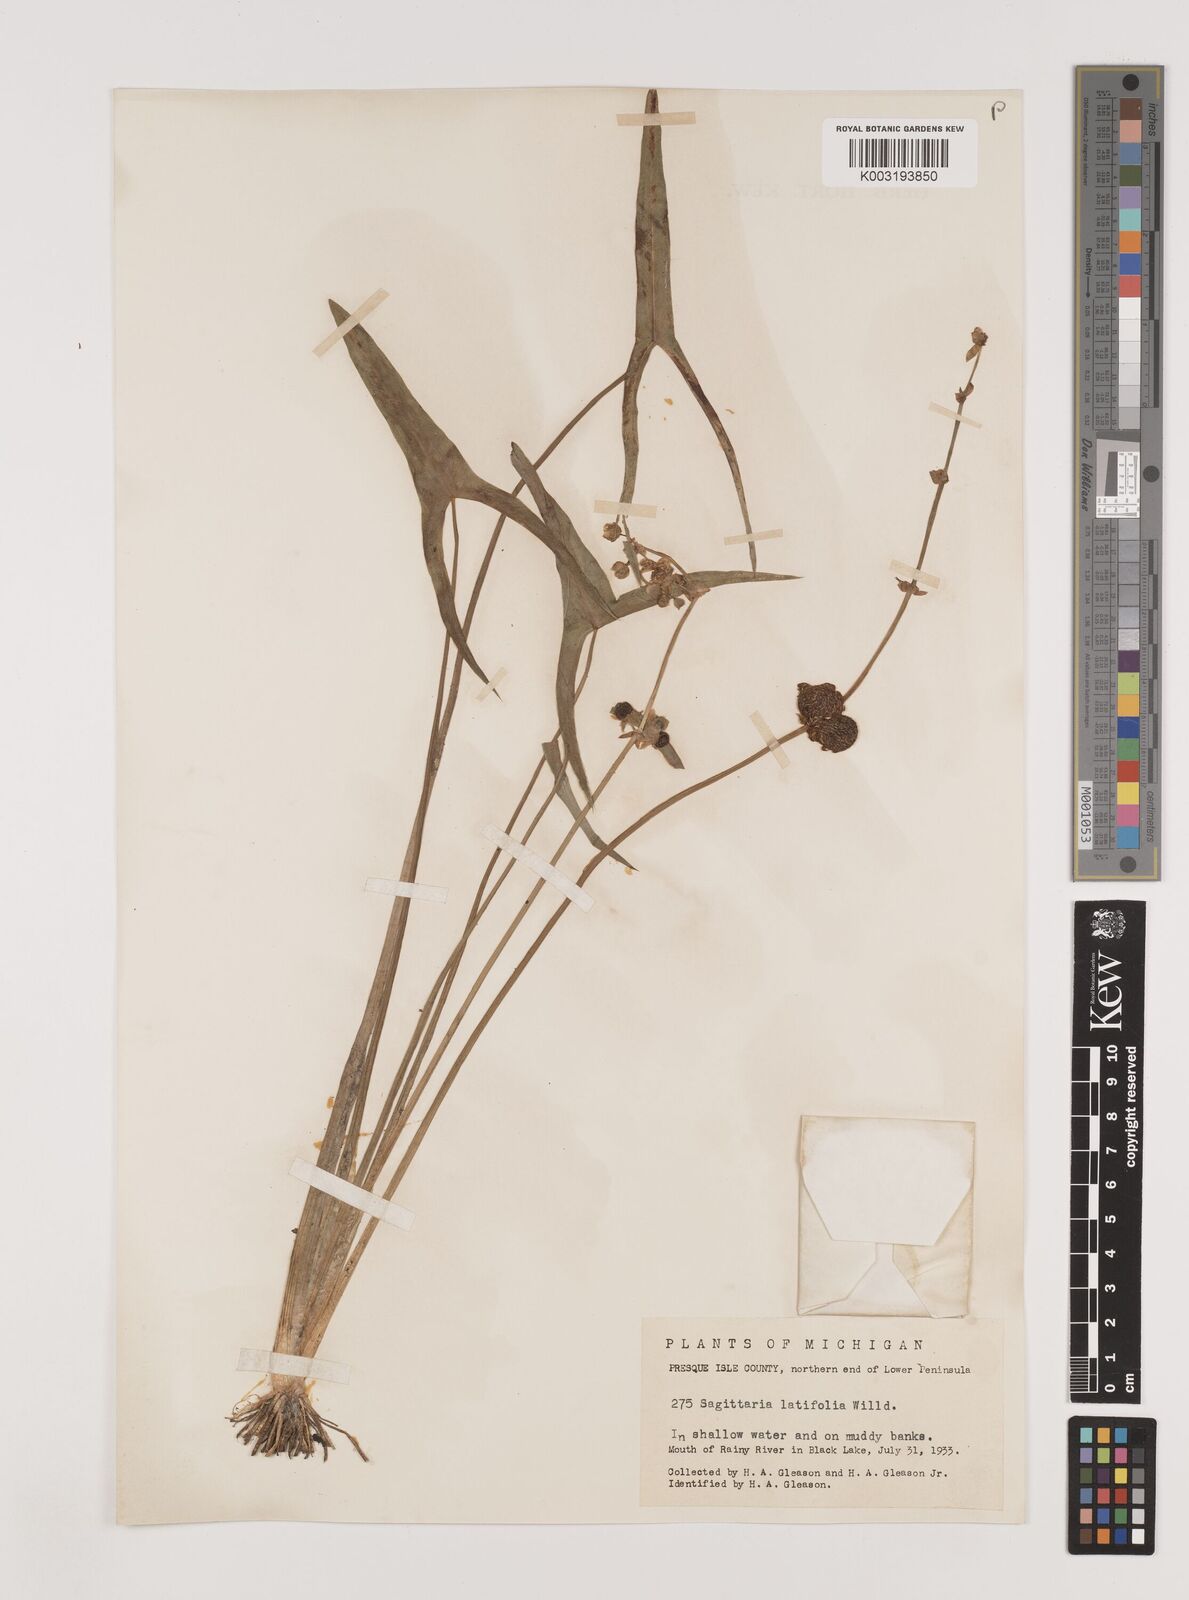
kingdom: Plantae
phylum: Tracheophyta
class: Liliopsida
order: Alismatales
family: Alismataceae
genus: Sagittaria
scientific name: Sagittaria latifolia
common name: Duck-potato
